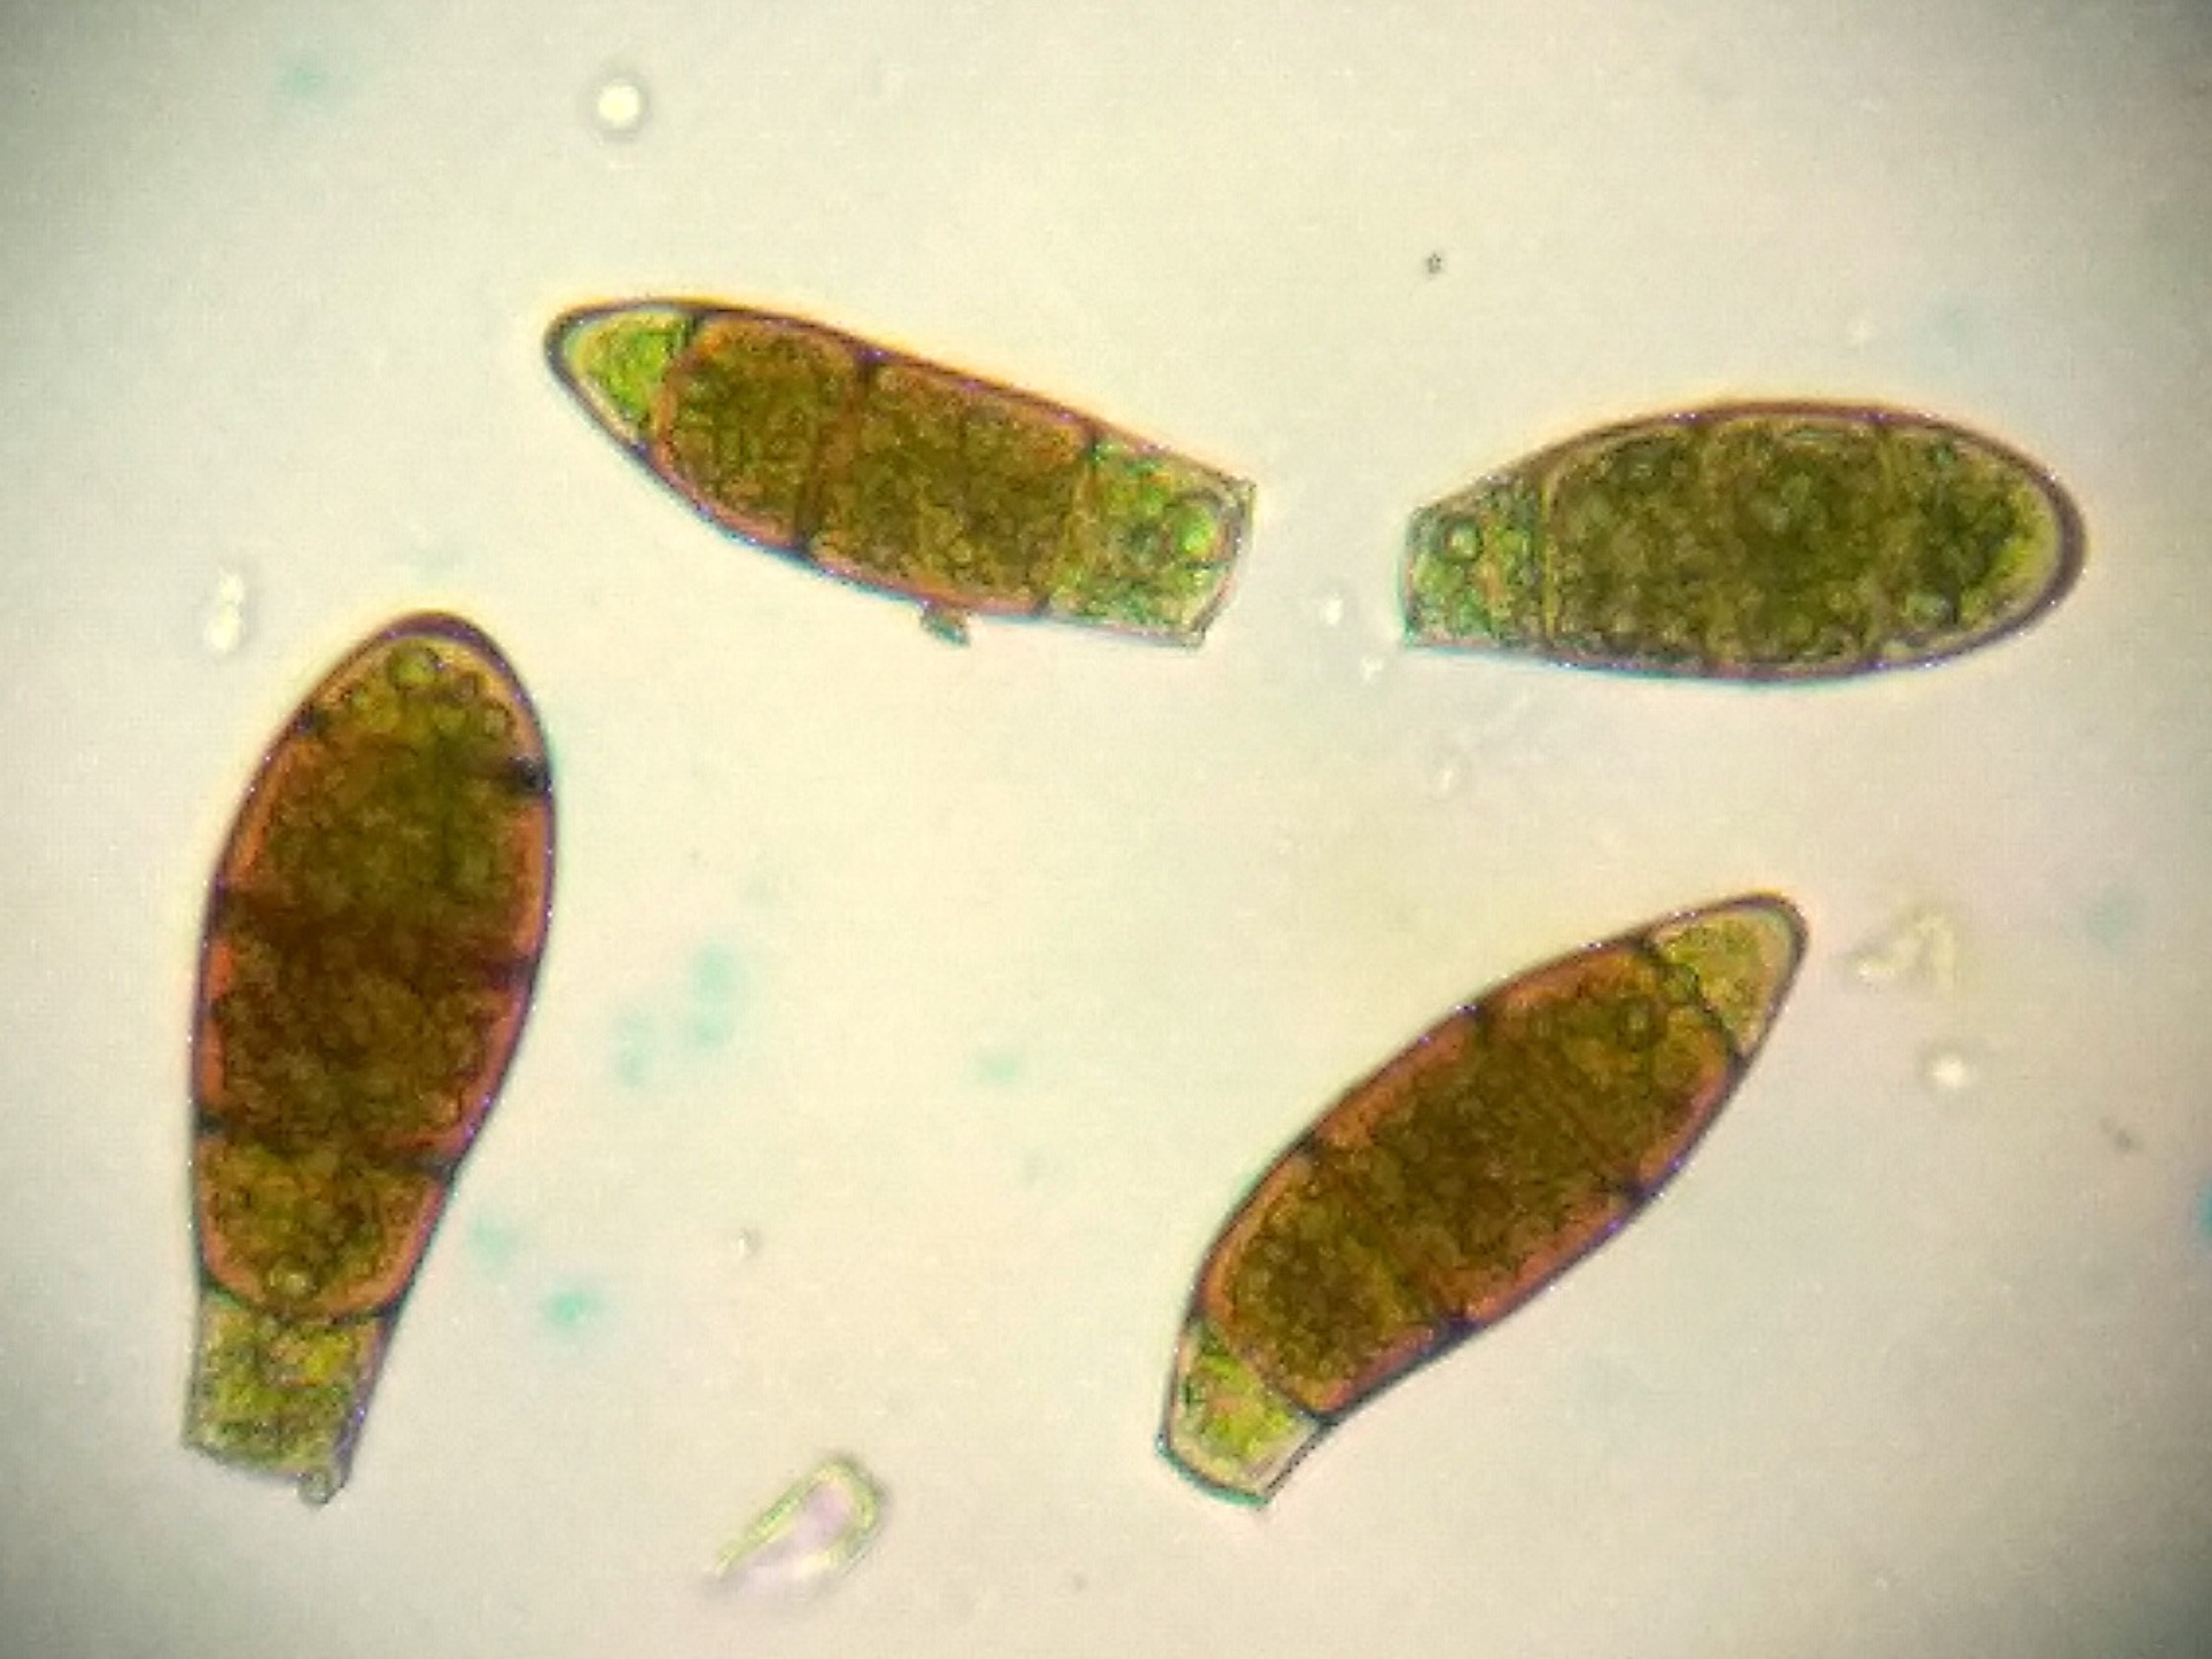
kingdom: Plantae
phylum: Bryophyta
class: Bryopsida
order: Orthotrichales
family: Orthotrichaceae
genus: Zygodon
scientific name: Zygodon rupestris
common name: Almindelig køllemos
